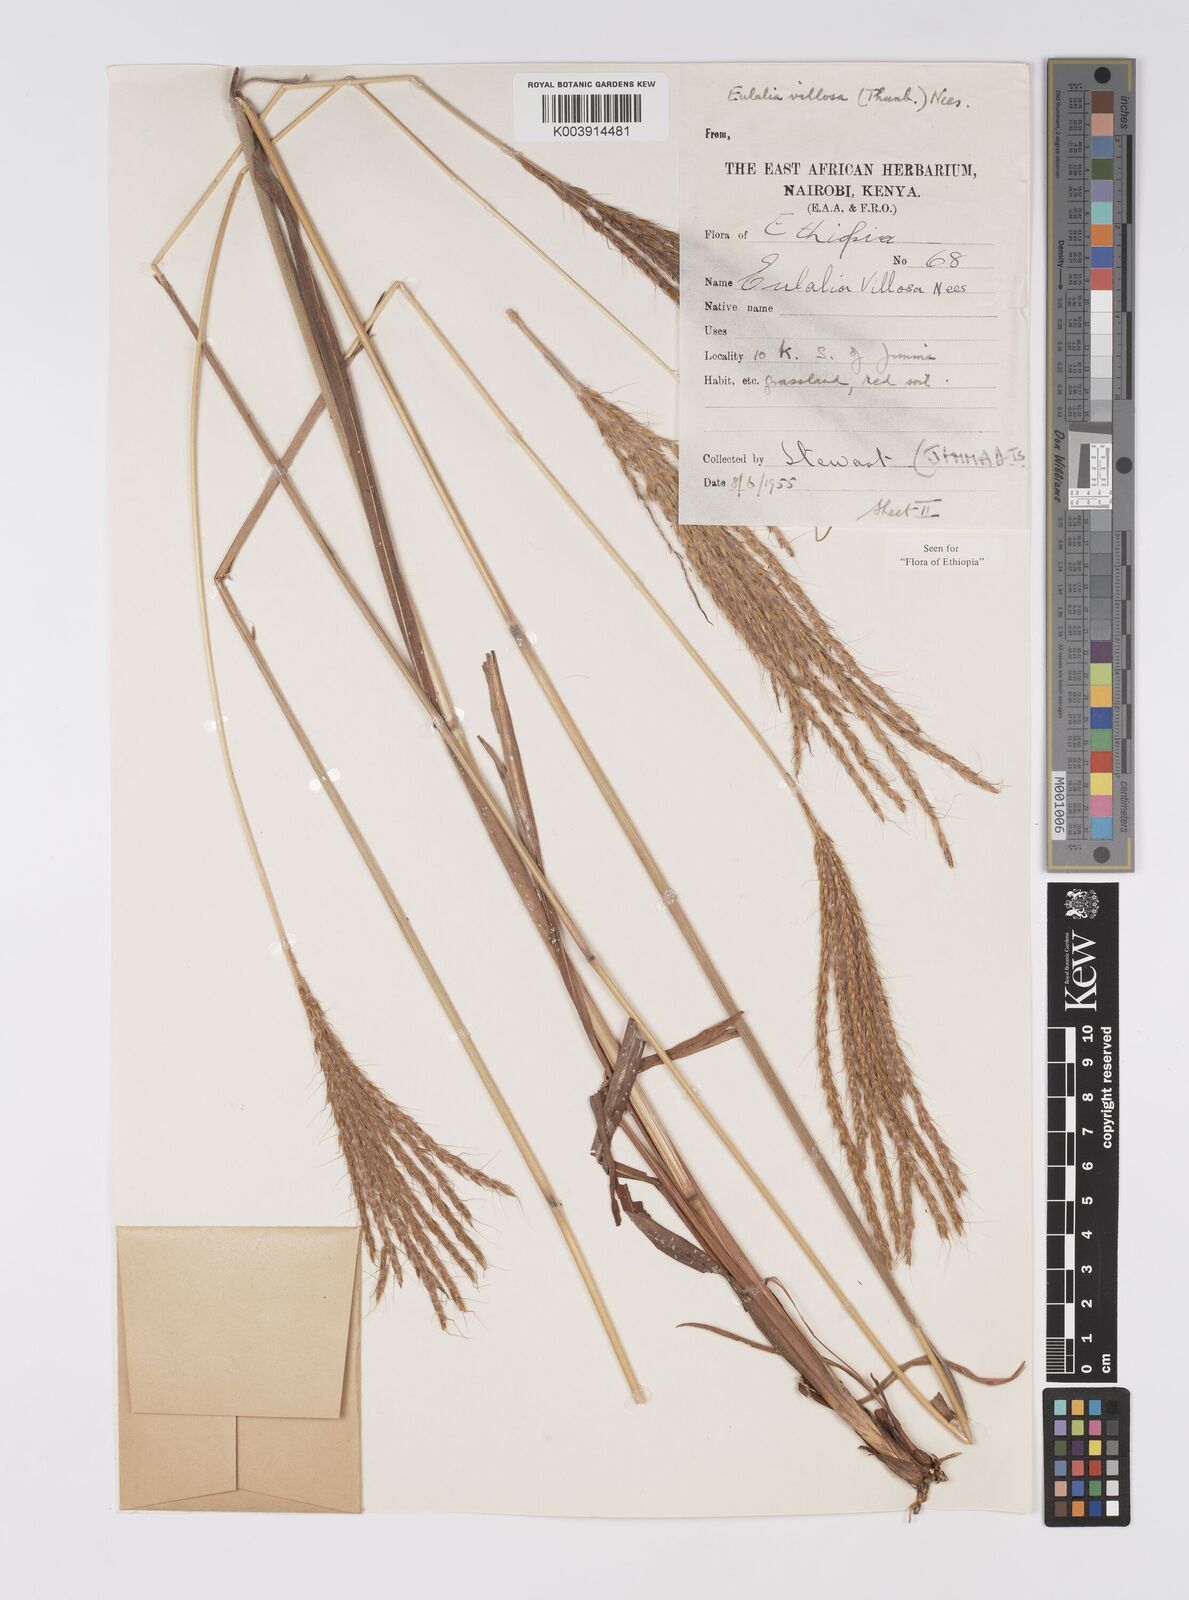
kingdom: Plantae
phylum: Tracheophyta
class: Liliopsida
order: Poales
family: Poaceae
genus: Eulalia
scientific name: Eulalia villosa
